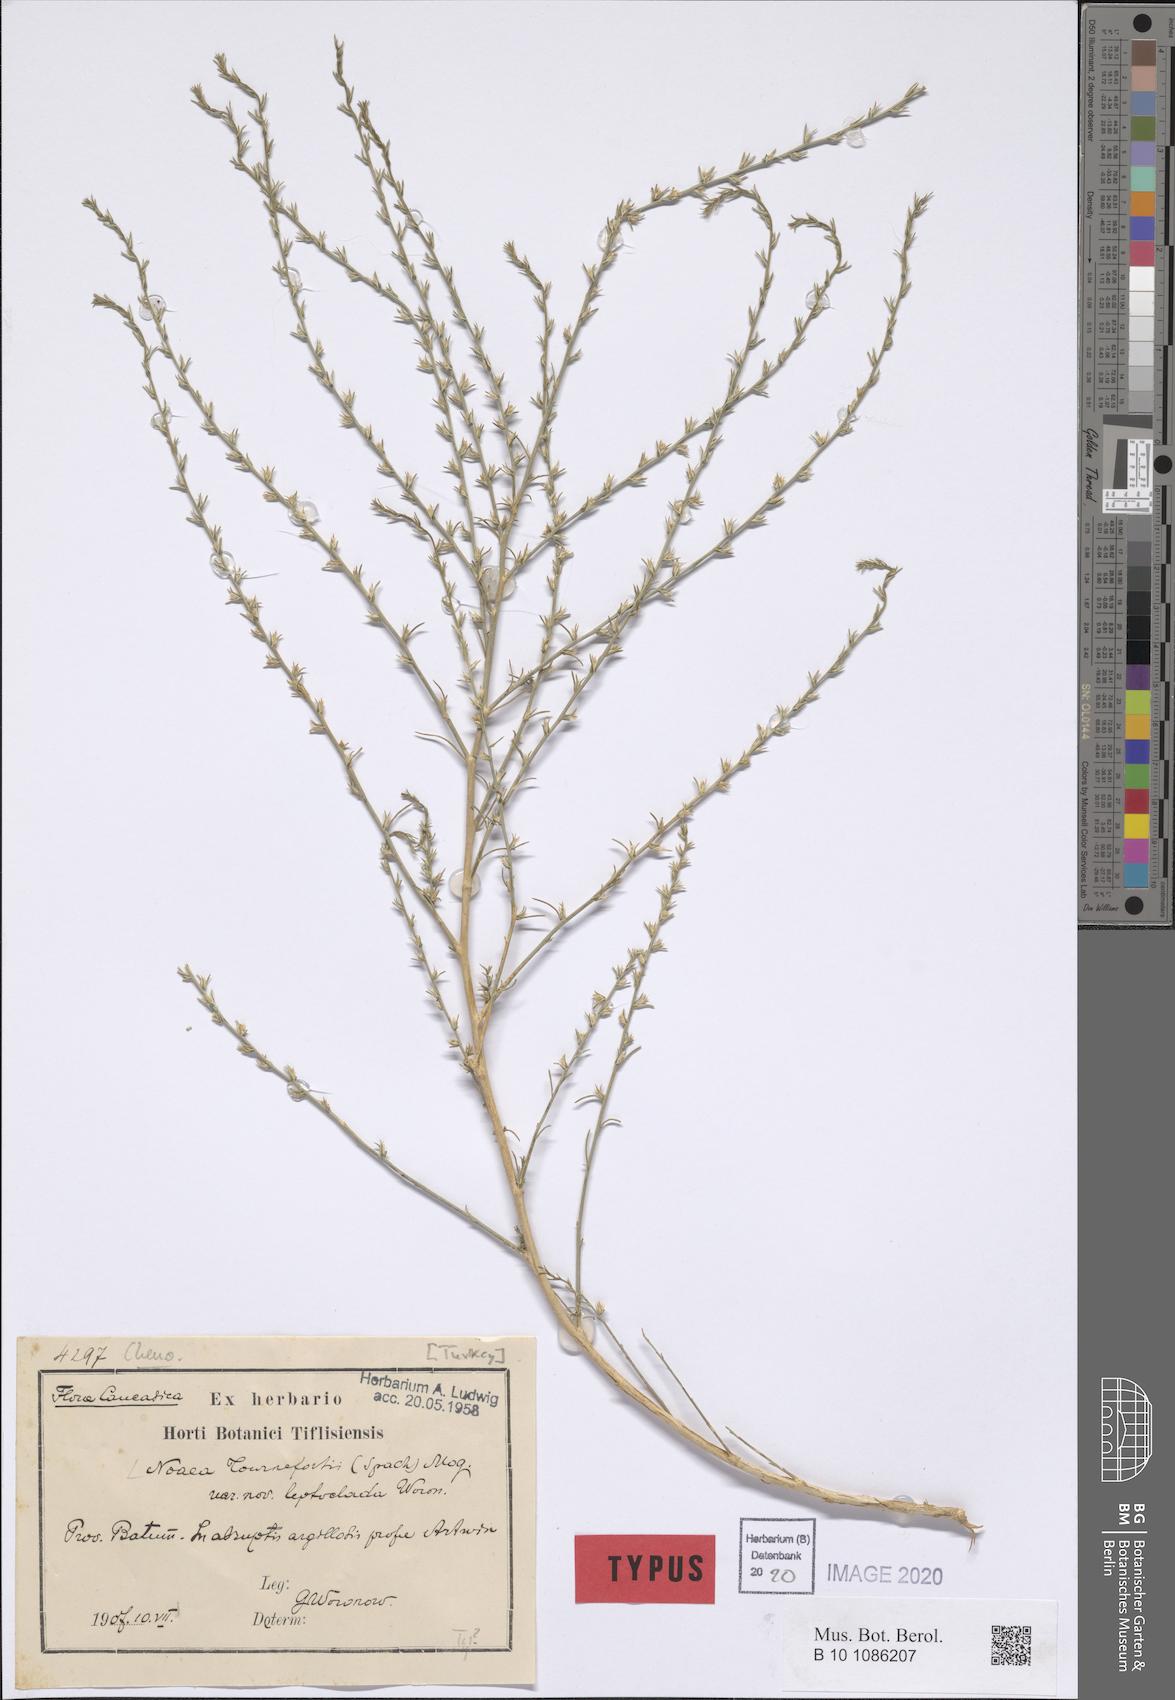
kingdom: Plantae
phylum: Tracheophyta
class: Magnoliopsida
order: Caryophyllales
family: Amaranthaceae
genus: Noaea
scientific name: Noaea tournefortii
